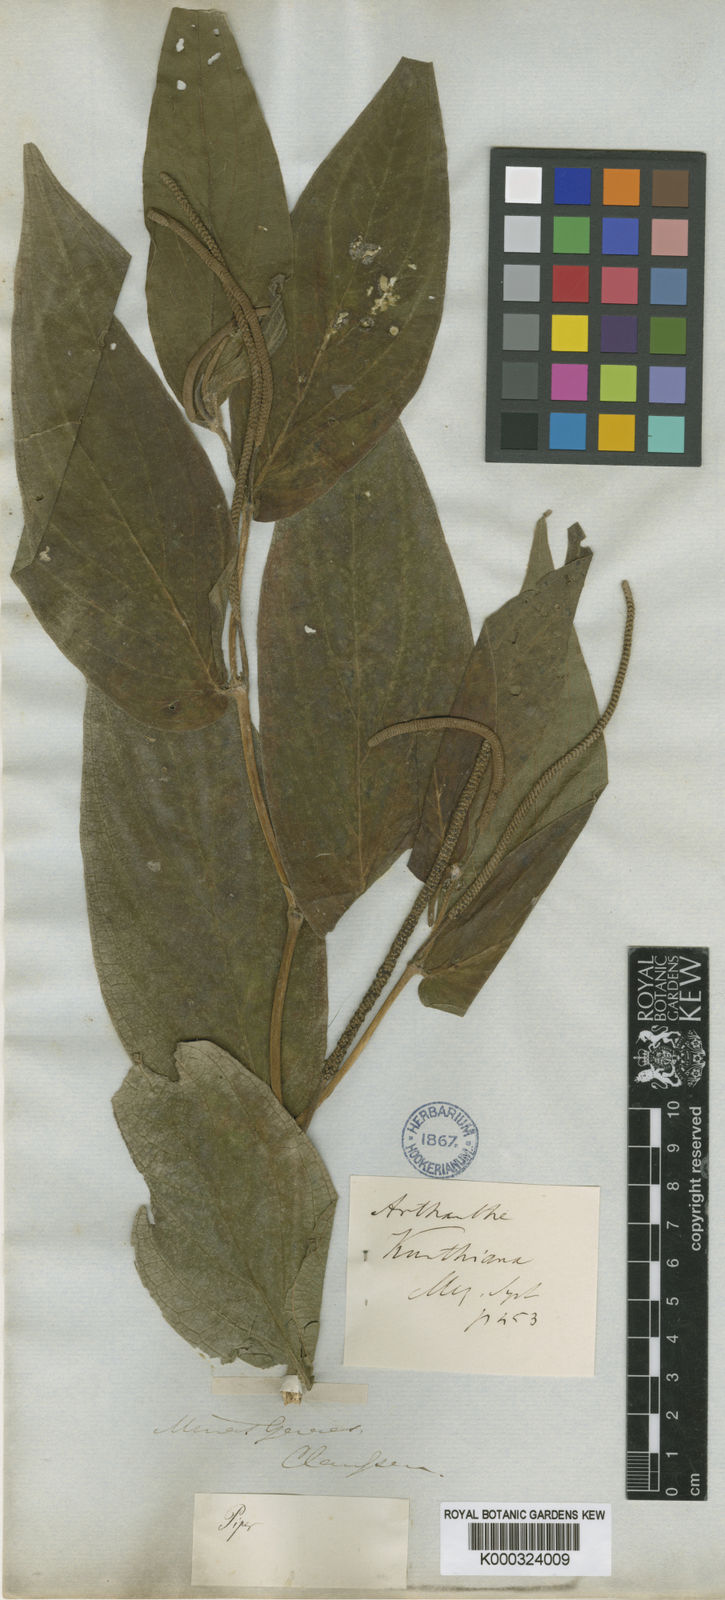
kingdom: Plantae
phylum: Tracheophyta
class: Magnoliopsida
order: Piperales
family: Piperaceae
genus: Piper
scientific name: Piper aduncum
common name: Spiked pepper
